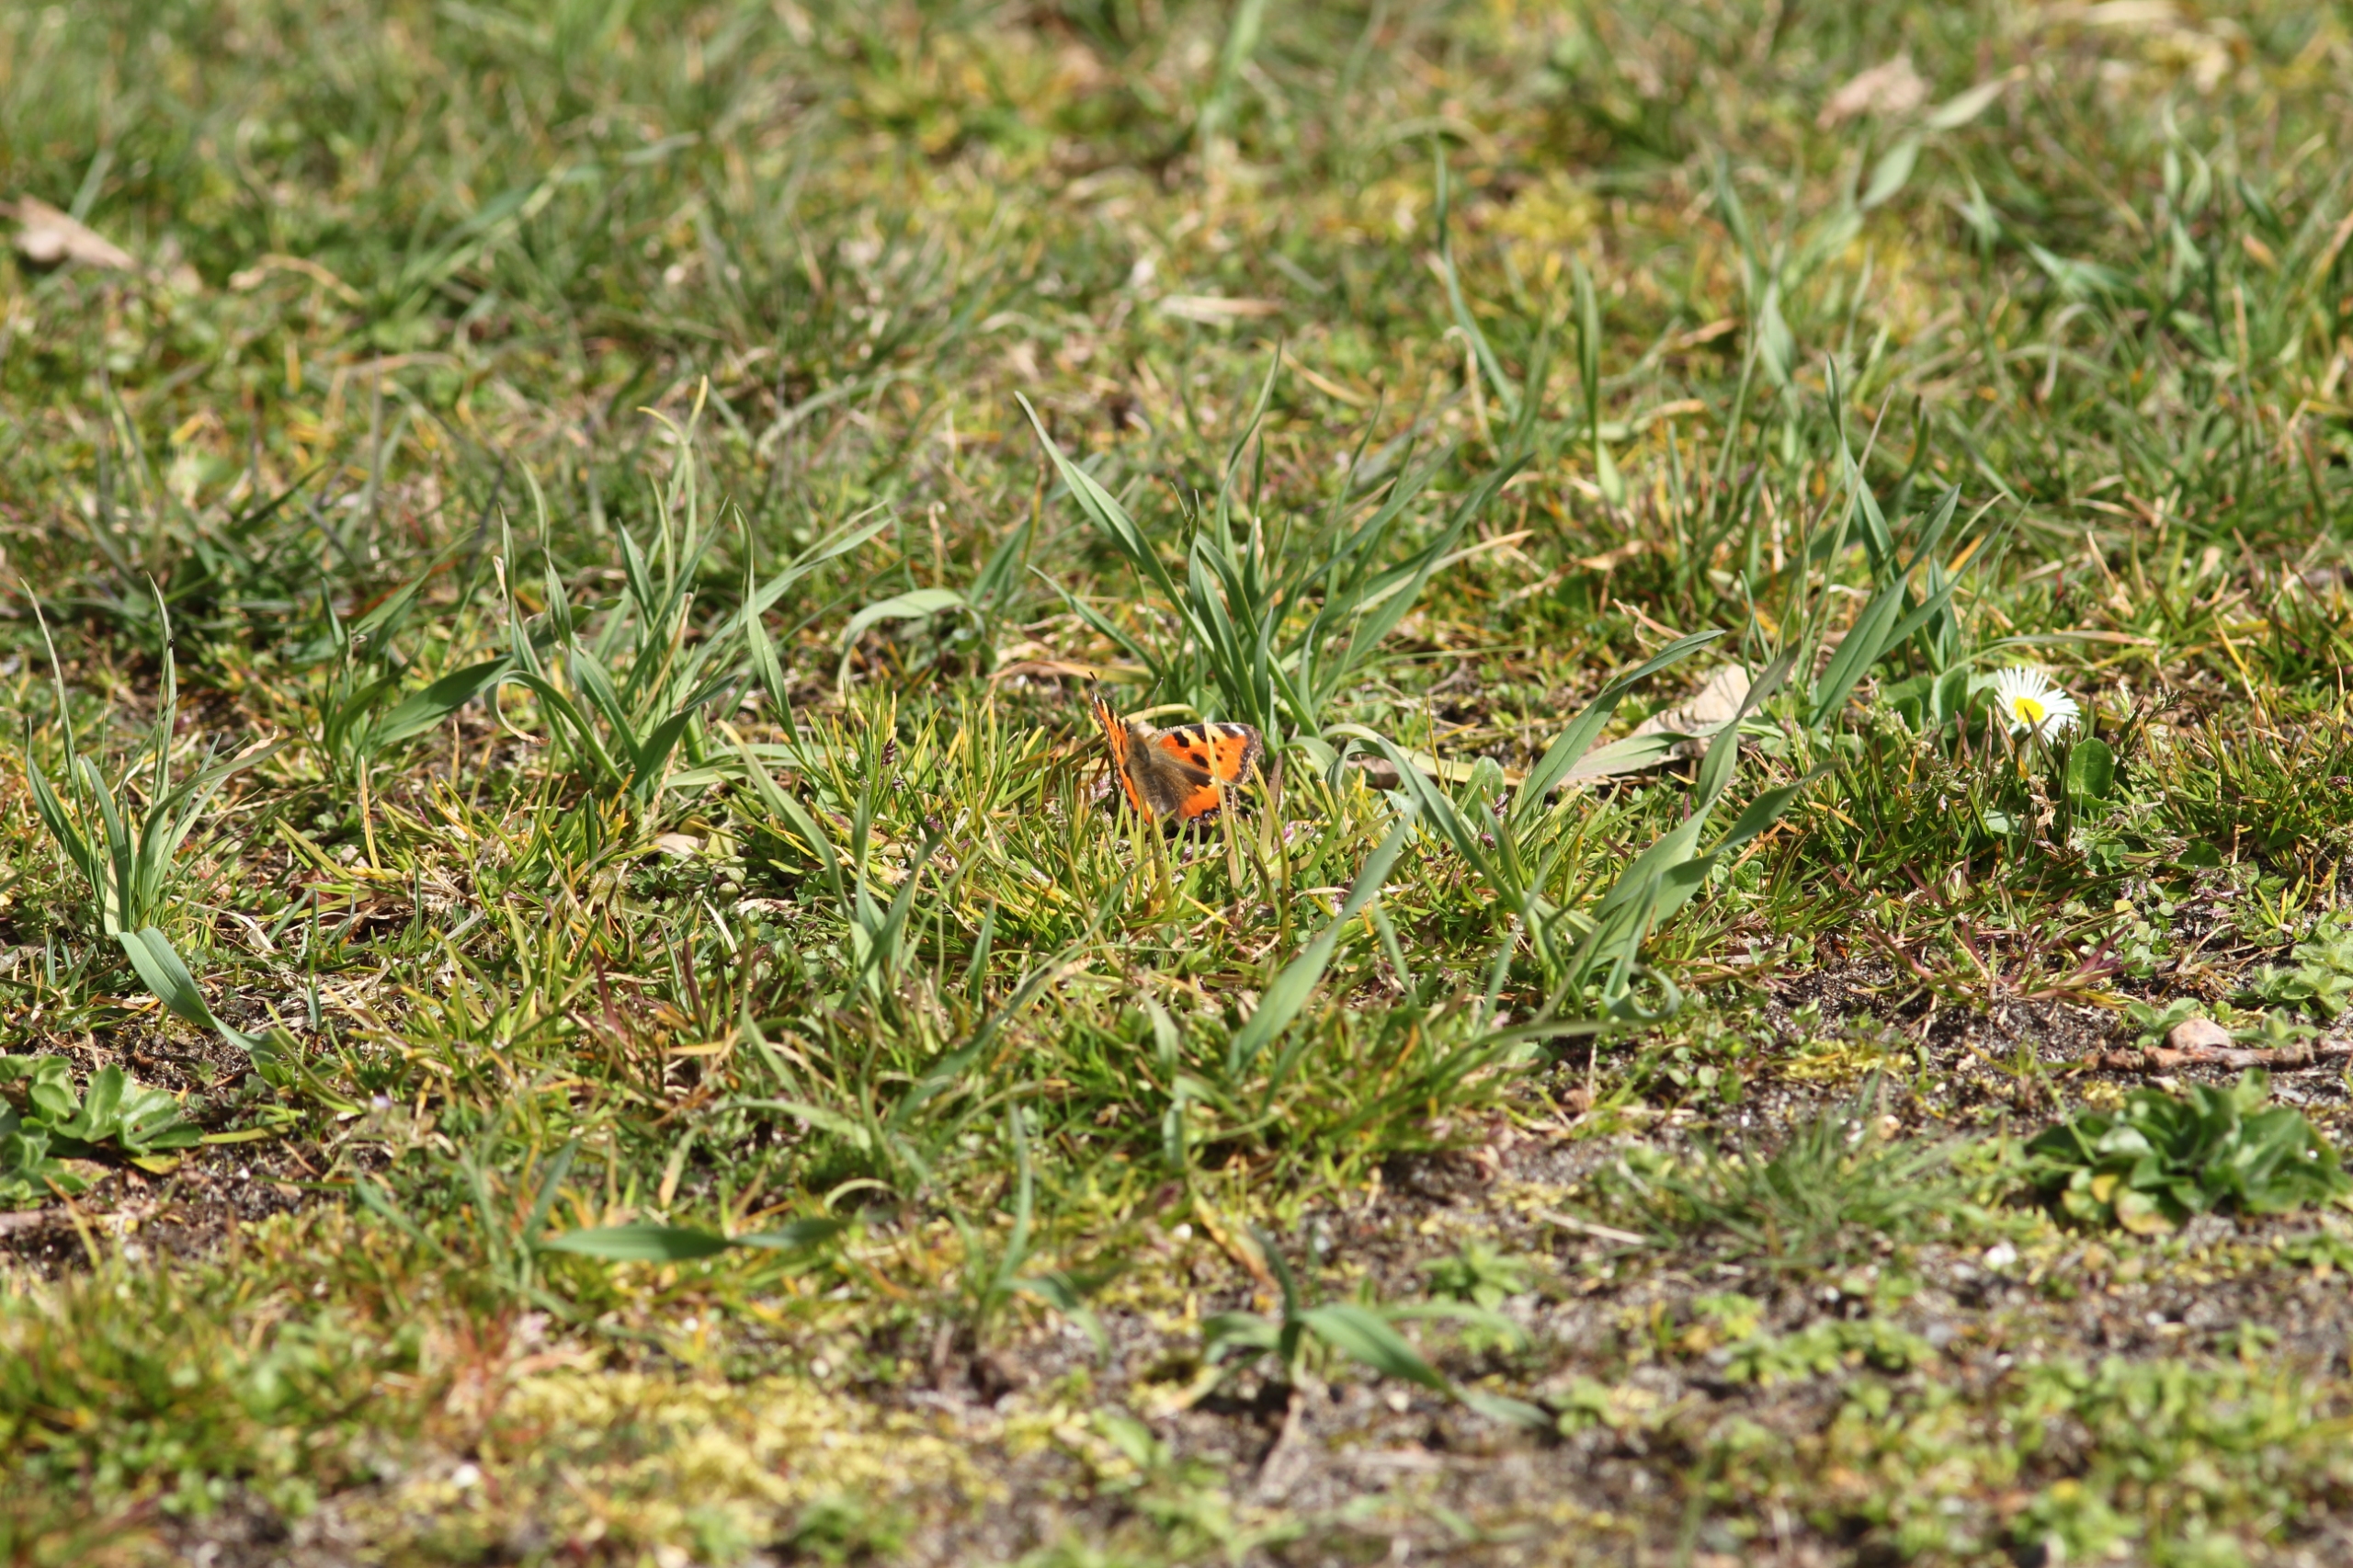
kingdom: Animalia
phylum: Arthropoda
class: Insecta
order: Lepidoptera
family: Nymphalidae
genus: Aglais
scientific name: Aglais urticae
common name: Nældens takvinge
